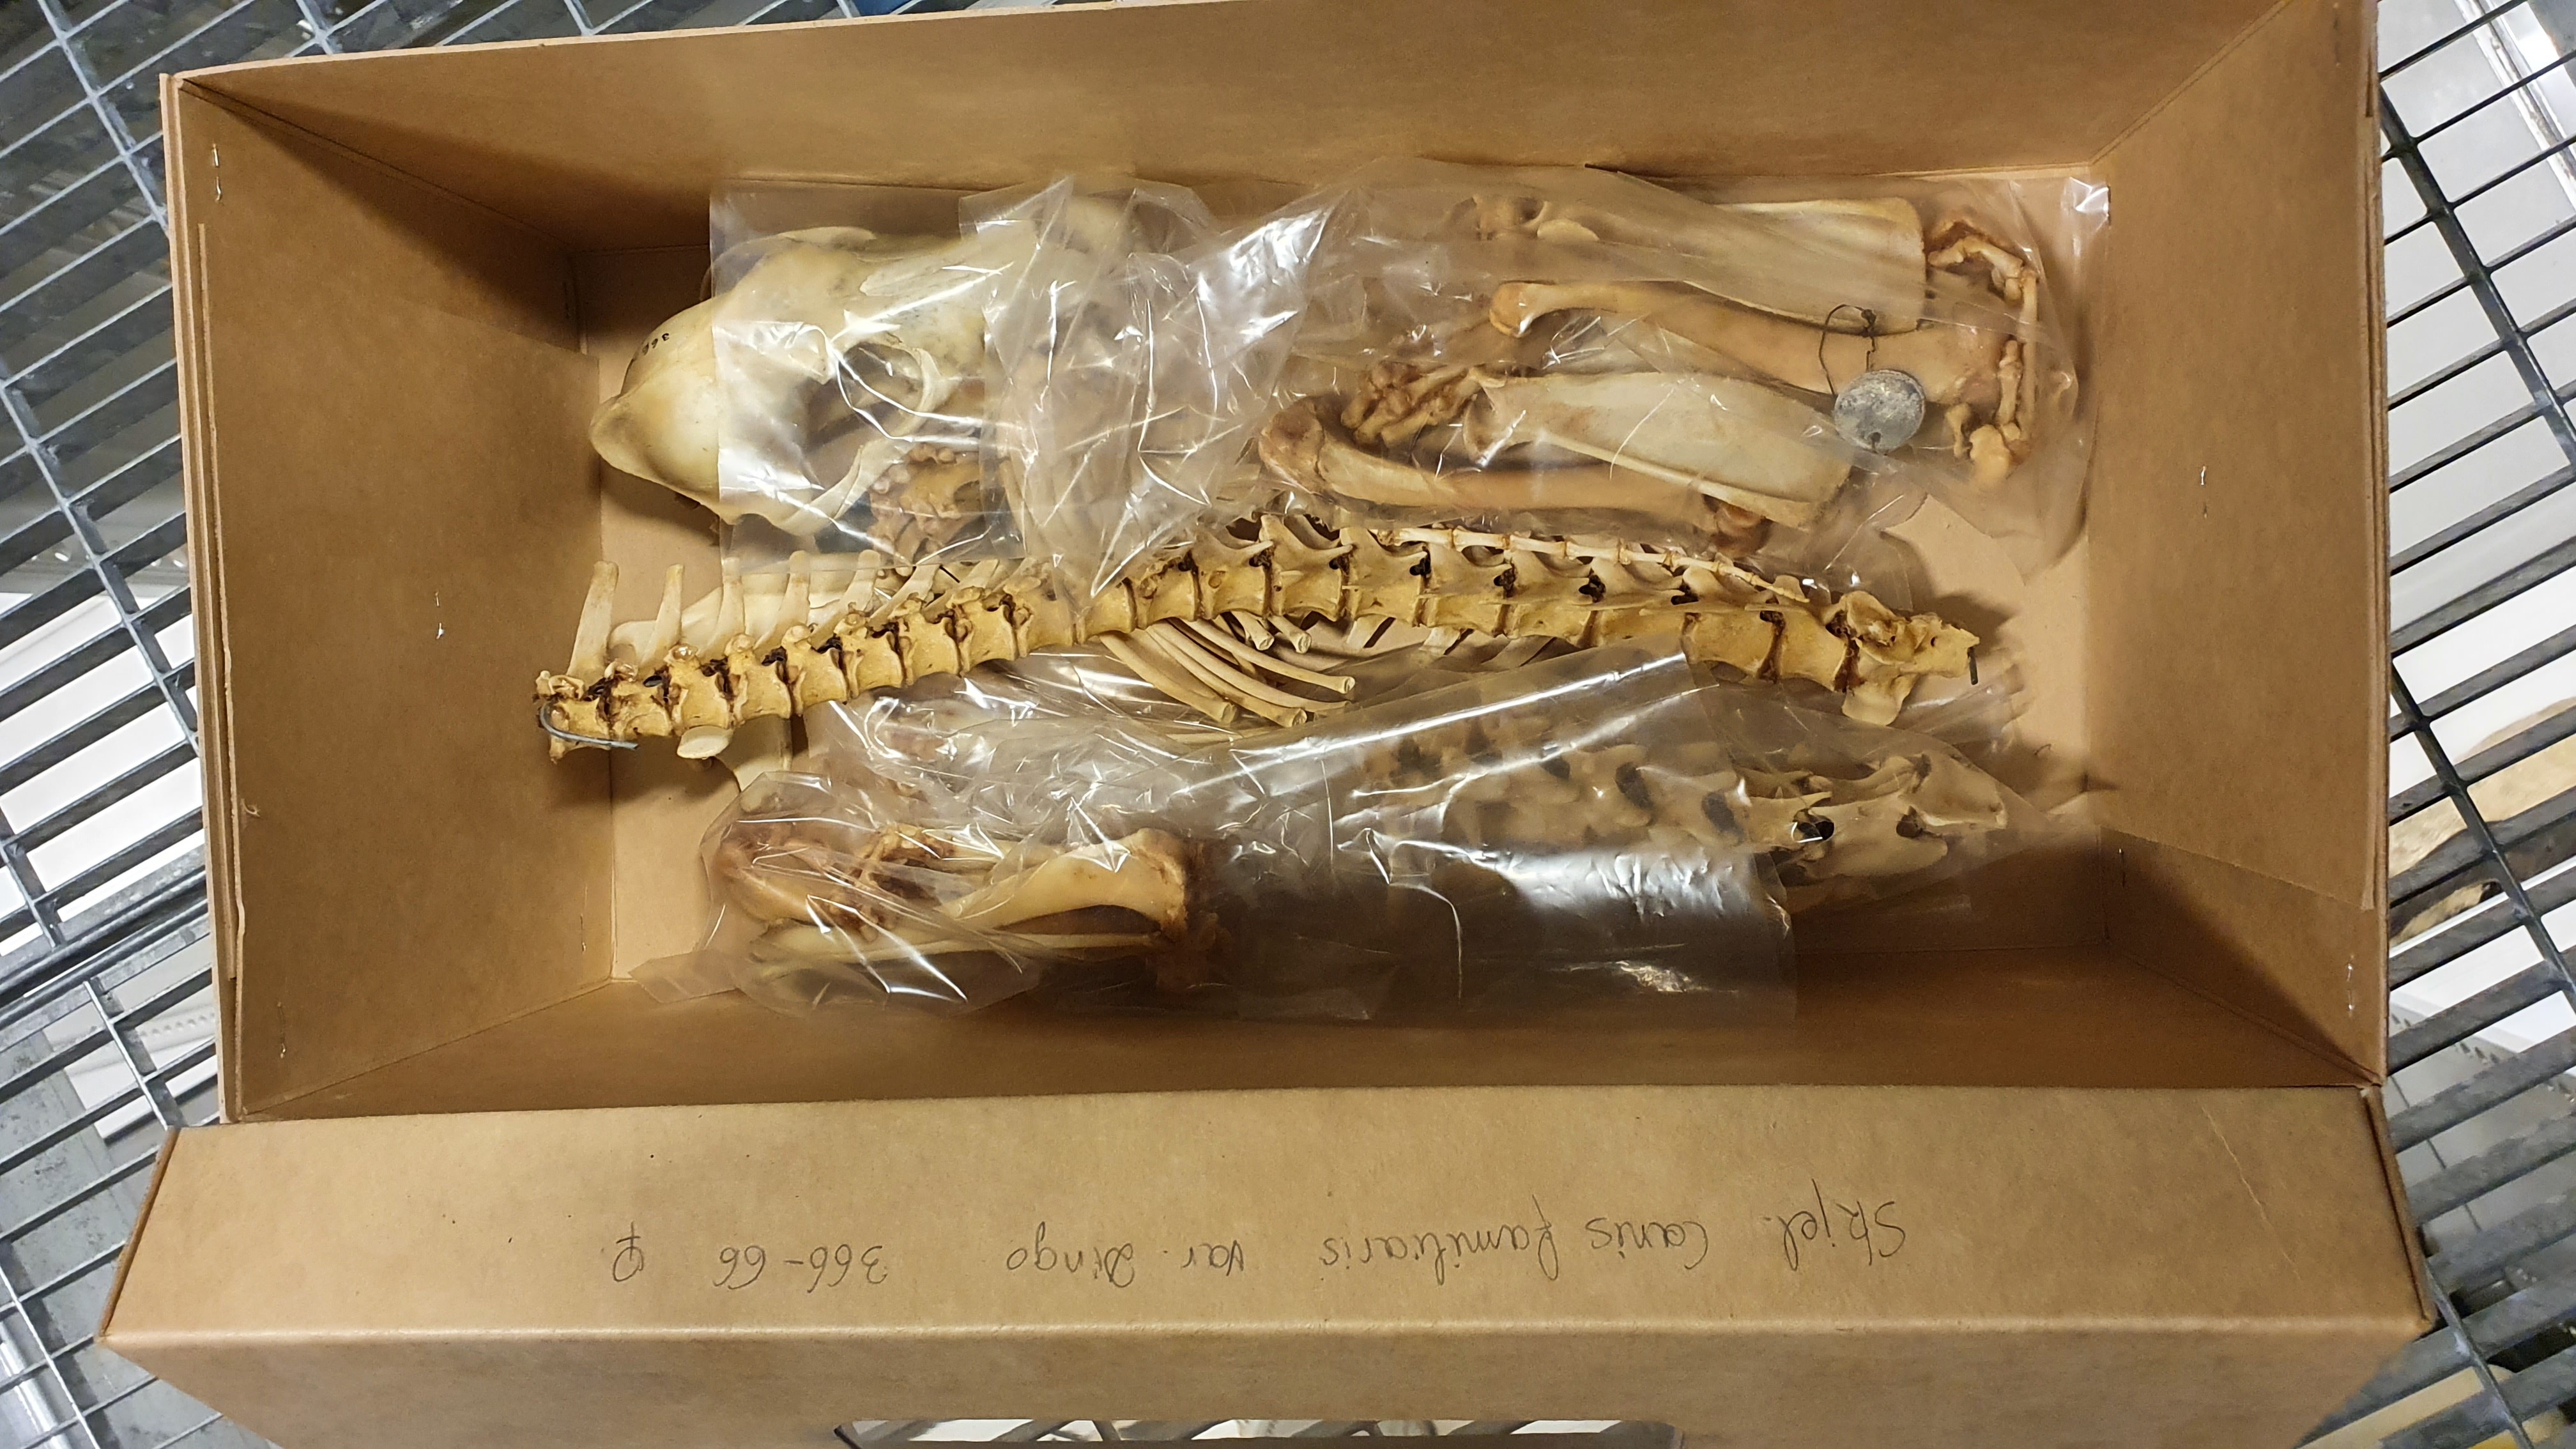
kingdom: Animalia
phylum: Chordata
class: Mammalia
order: Carnivora
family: Canidae
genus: Canis
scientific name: Canis lupus
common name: Gray wolf
